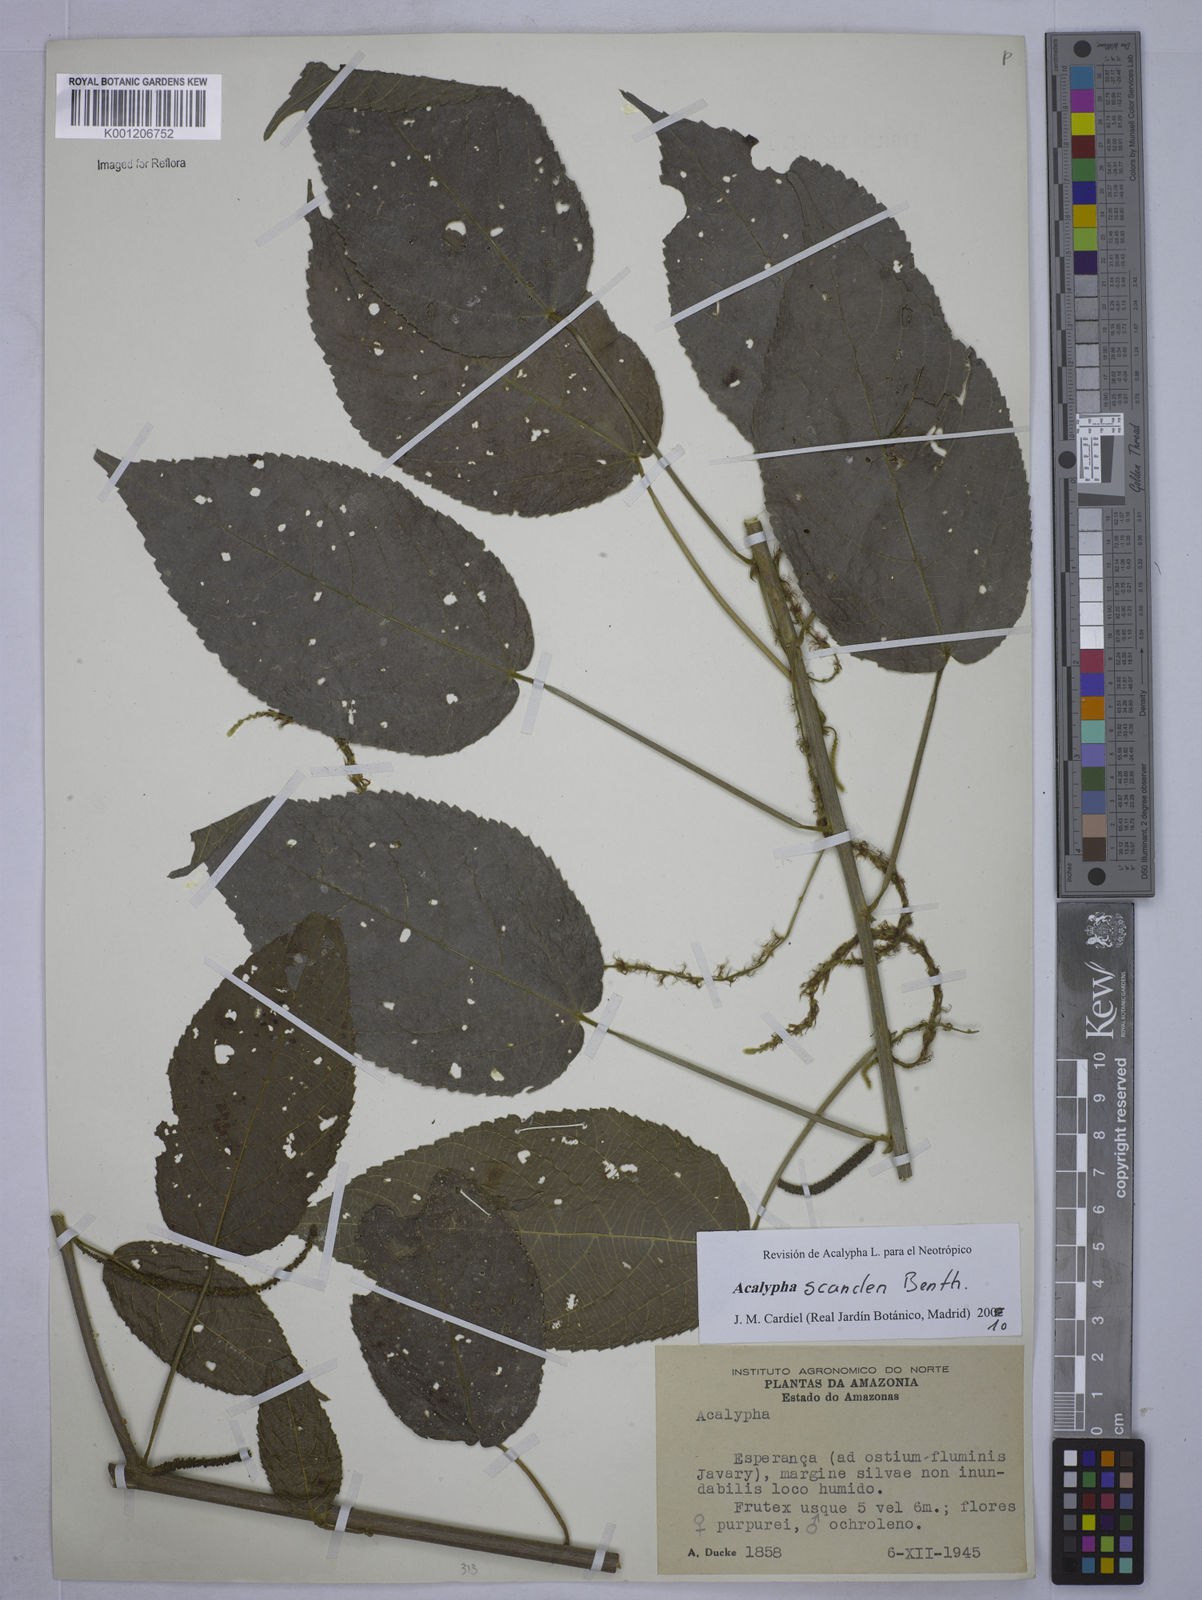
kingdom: Plantae
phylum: Tracheophyta
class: Magnoliopsida
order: Malpighiales
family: Euphorbiaceae
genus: Acalypha
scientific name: Acalypha scandens
